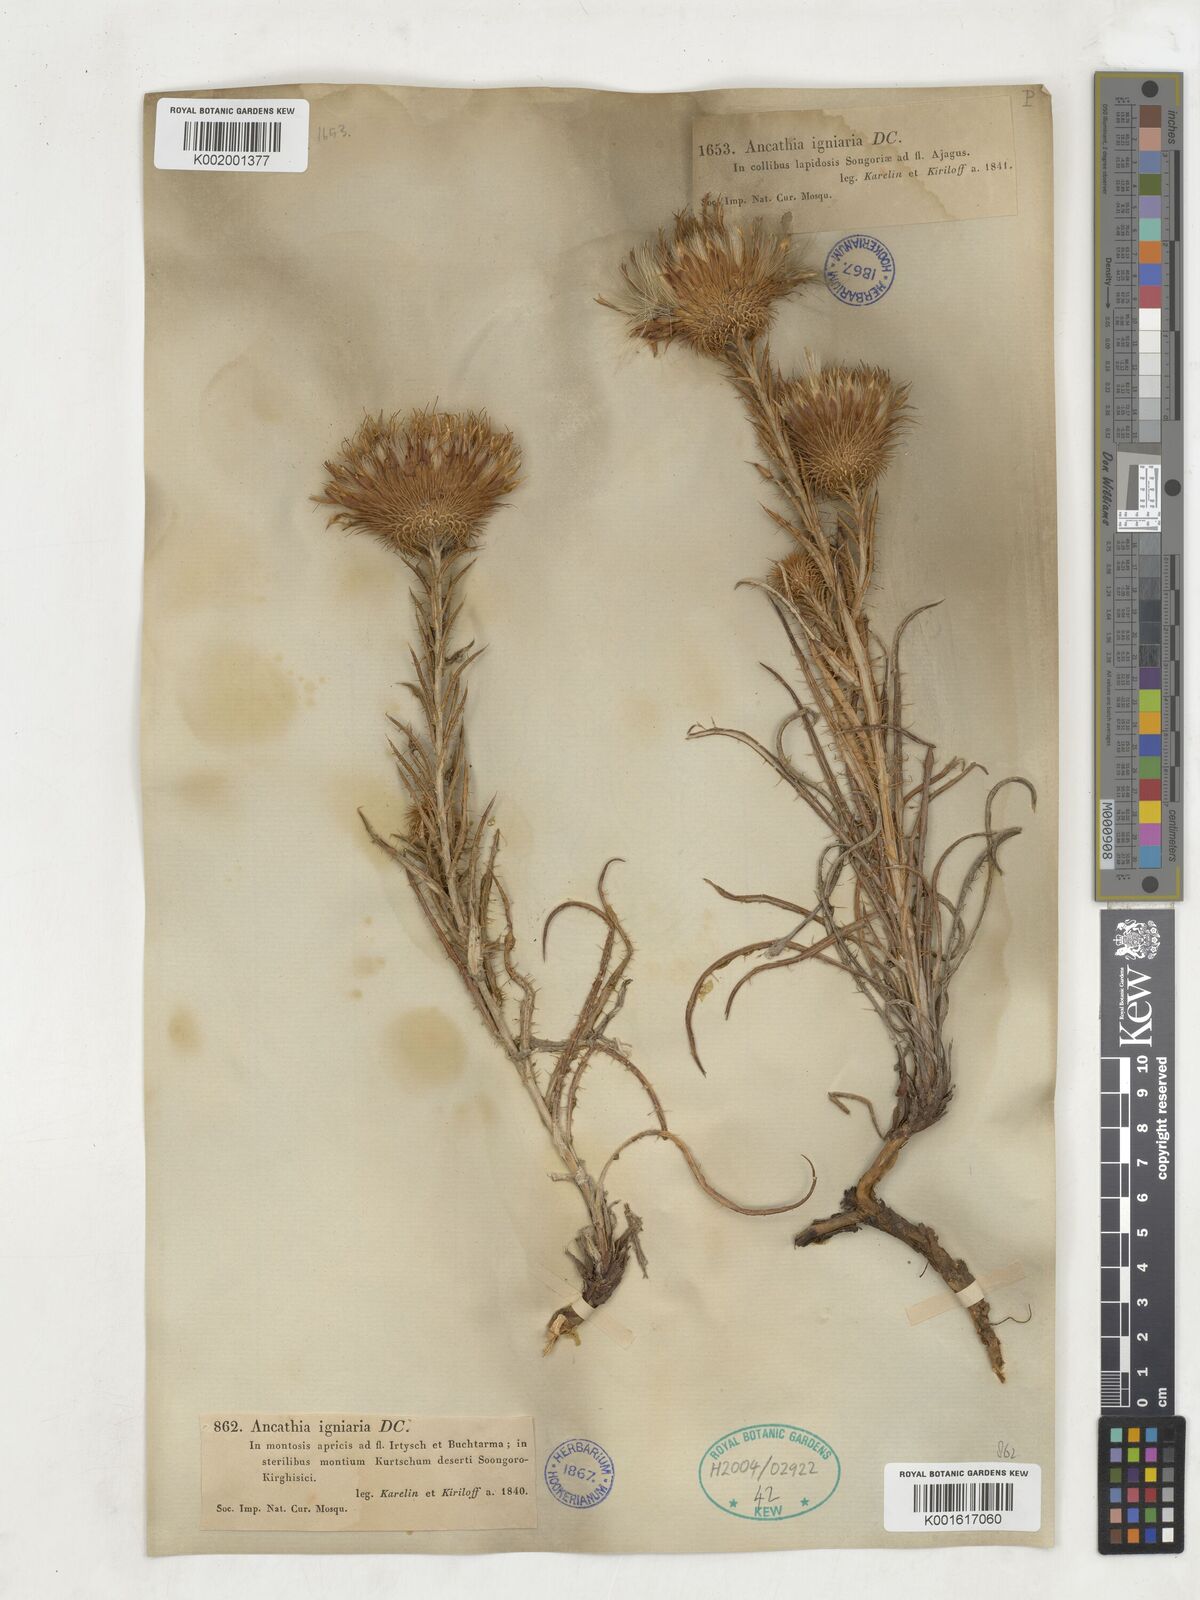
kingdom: Plantae
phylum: Tracheophyta
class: Magnoliopsida
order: Asterales
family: Asteraceae
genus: Ancathia
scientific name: Ancathia igniaria
